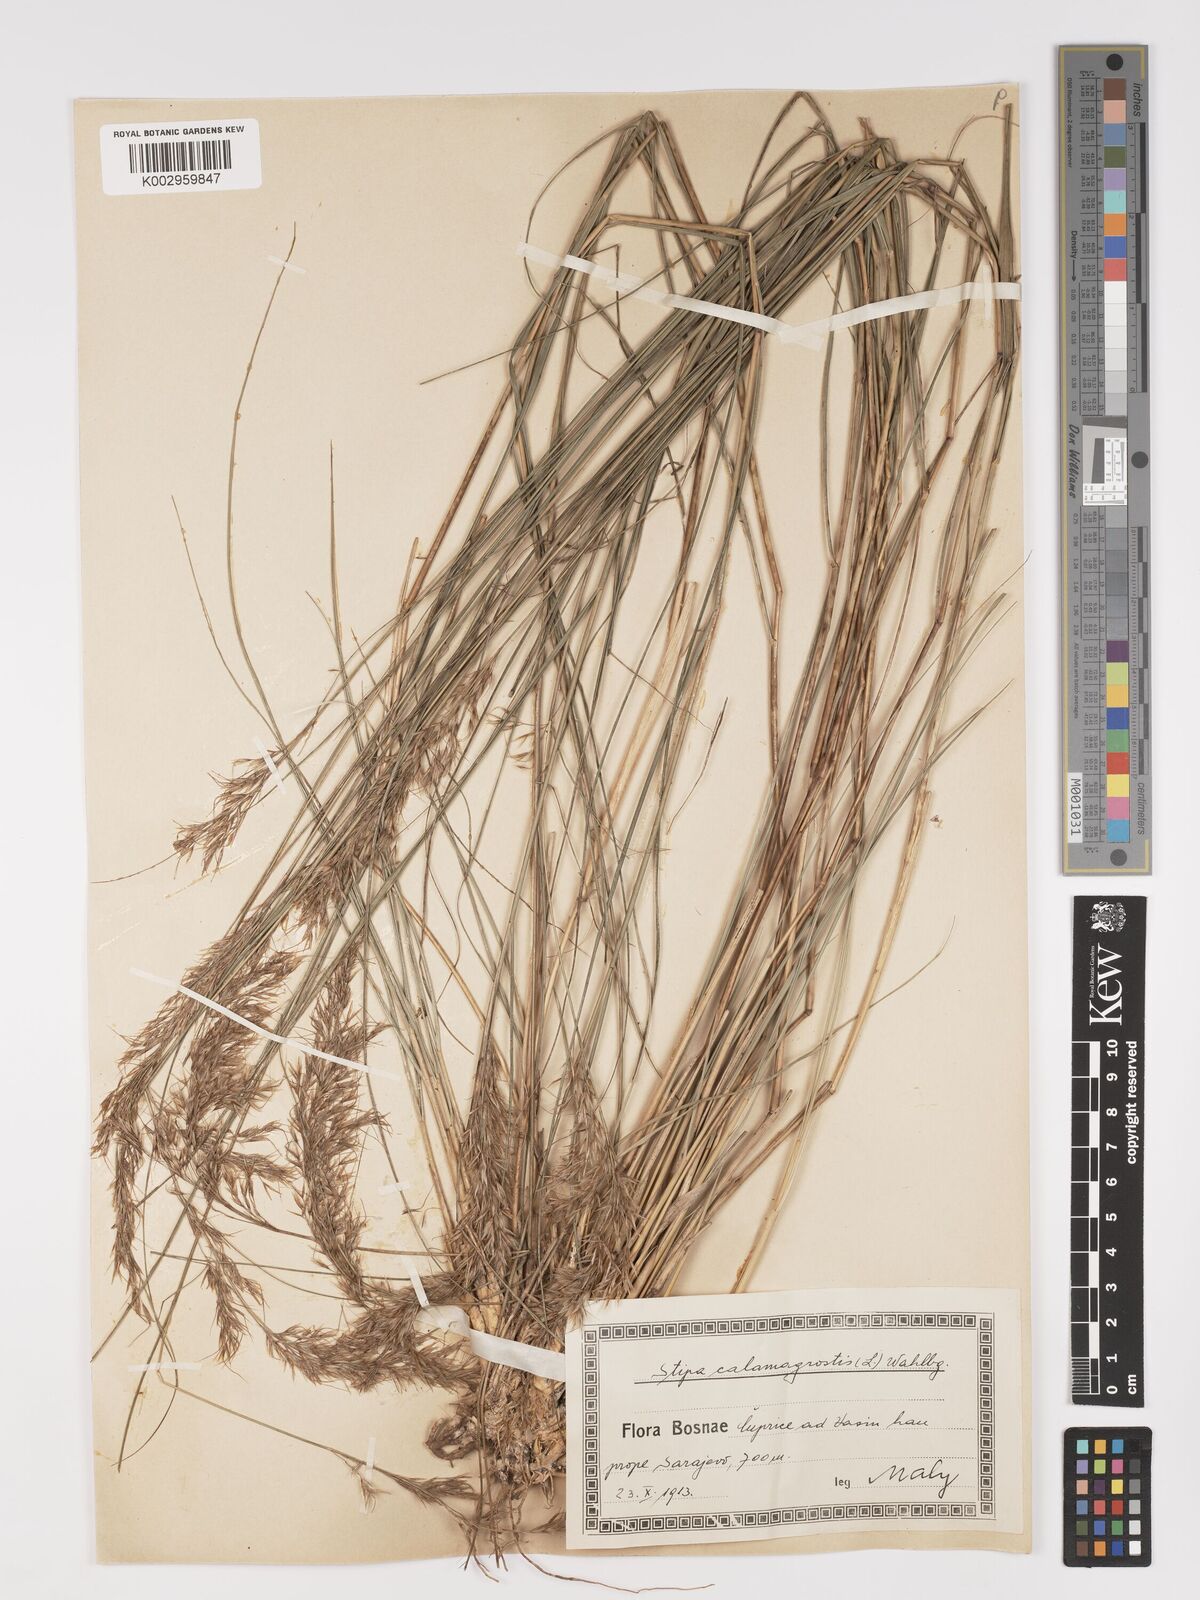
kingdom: Plantae
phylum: Tracheophyta
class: Liliopsida
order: Poales
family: Poaceae
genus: Achnatherum
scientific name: Achnatherum calamagrostis
